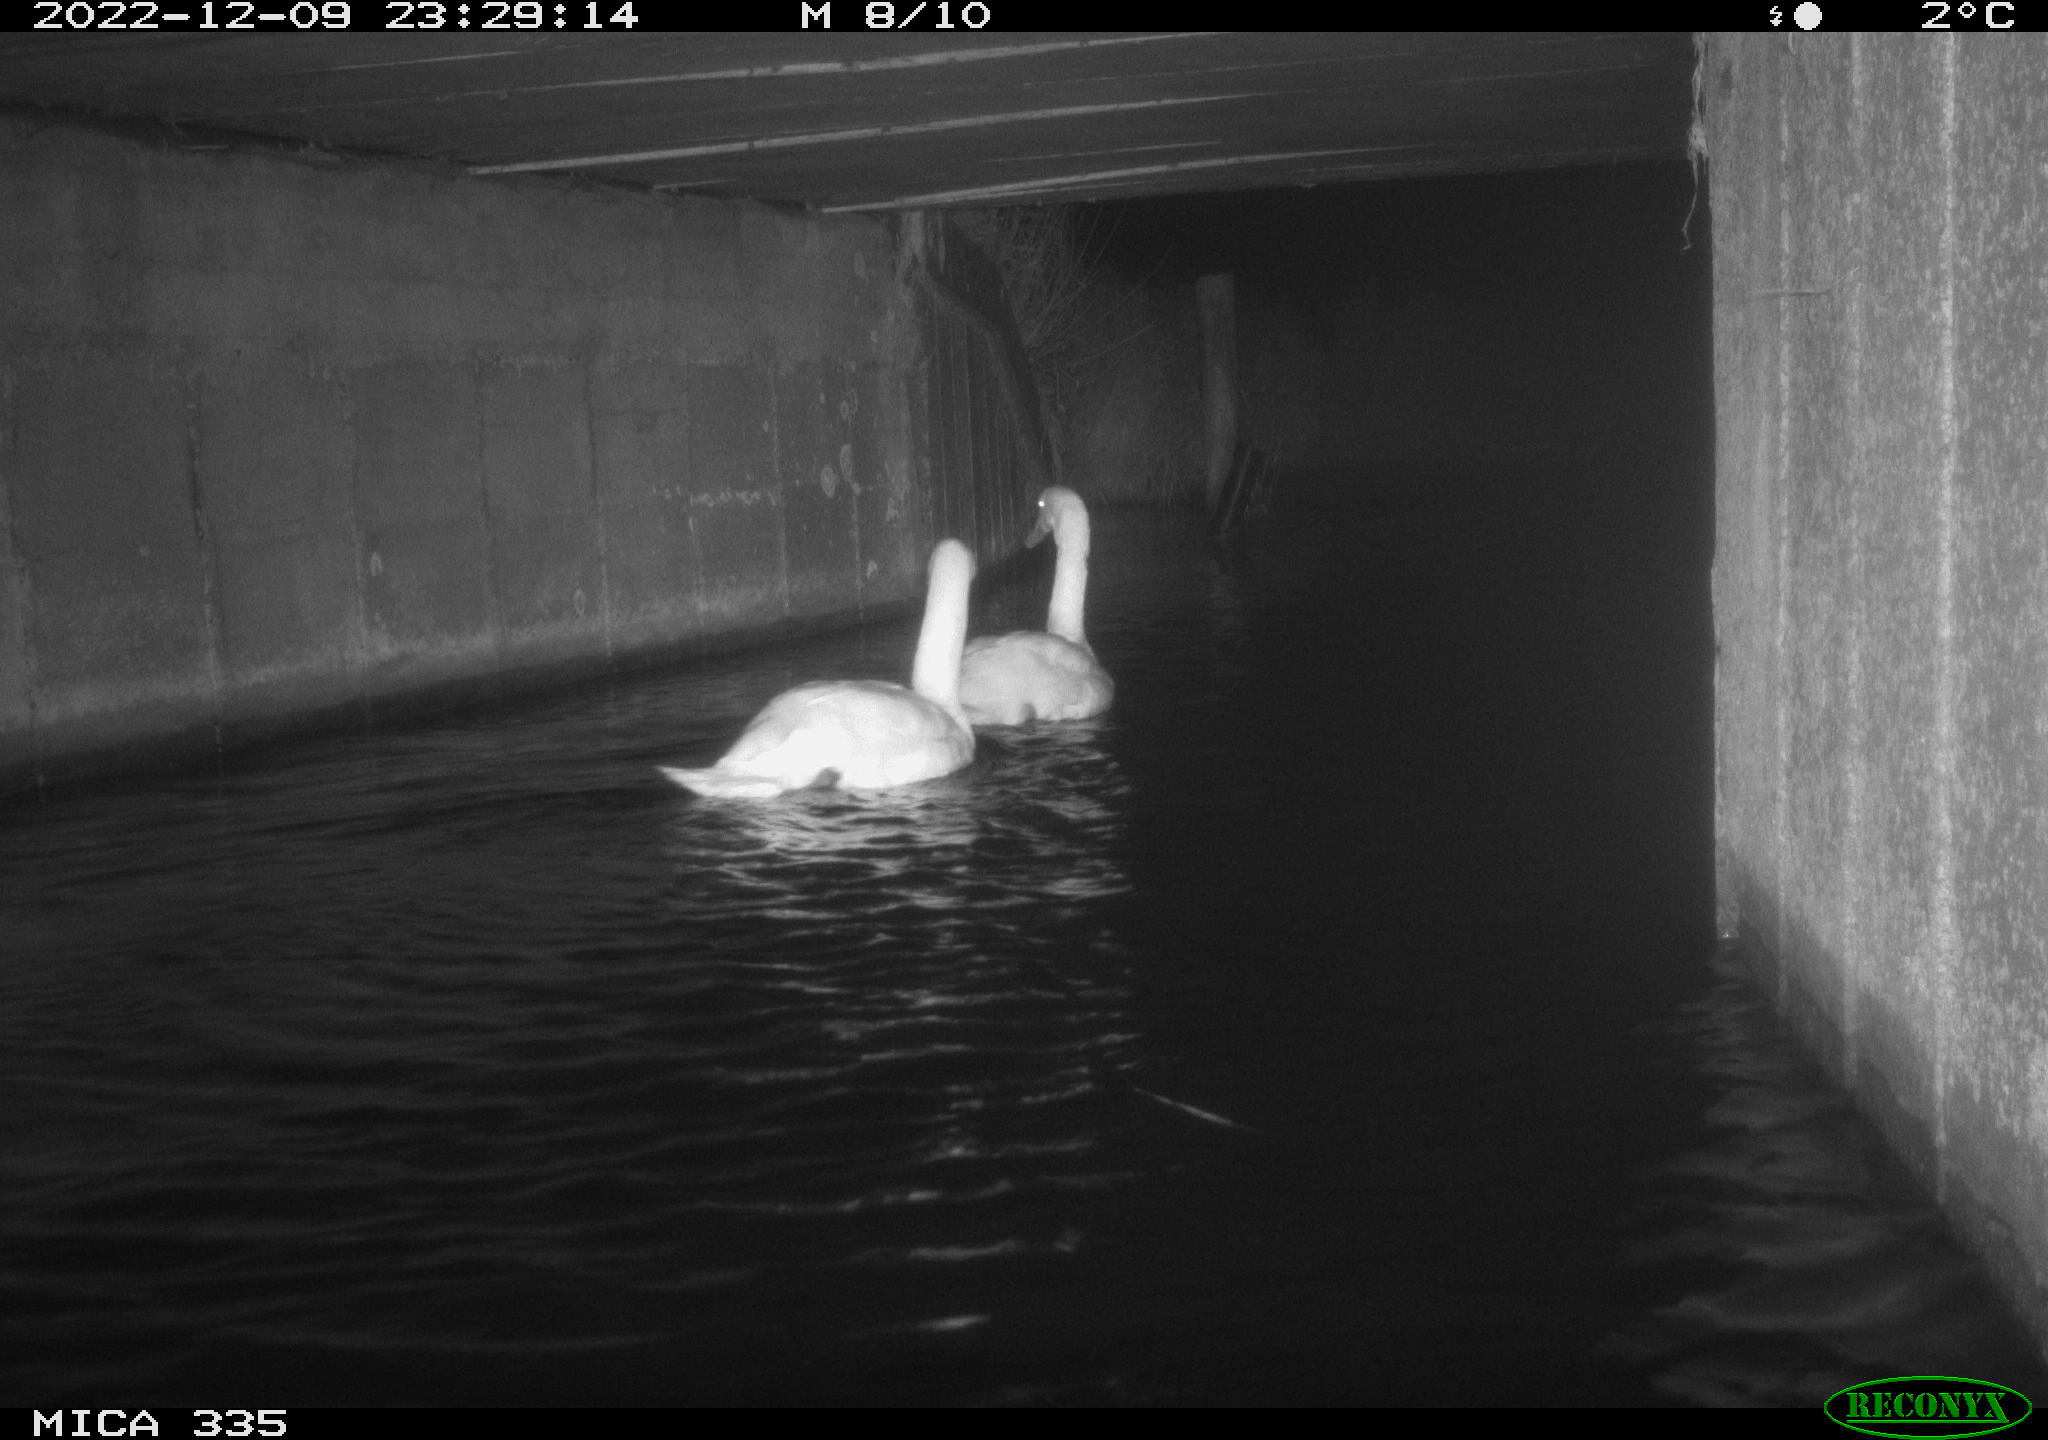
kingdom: Animalia
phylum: Chordata
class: Aves
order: Anseriformes
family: Anatidae
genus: Cygnus
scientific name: Cygnus olor
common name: Mute swan
